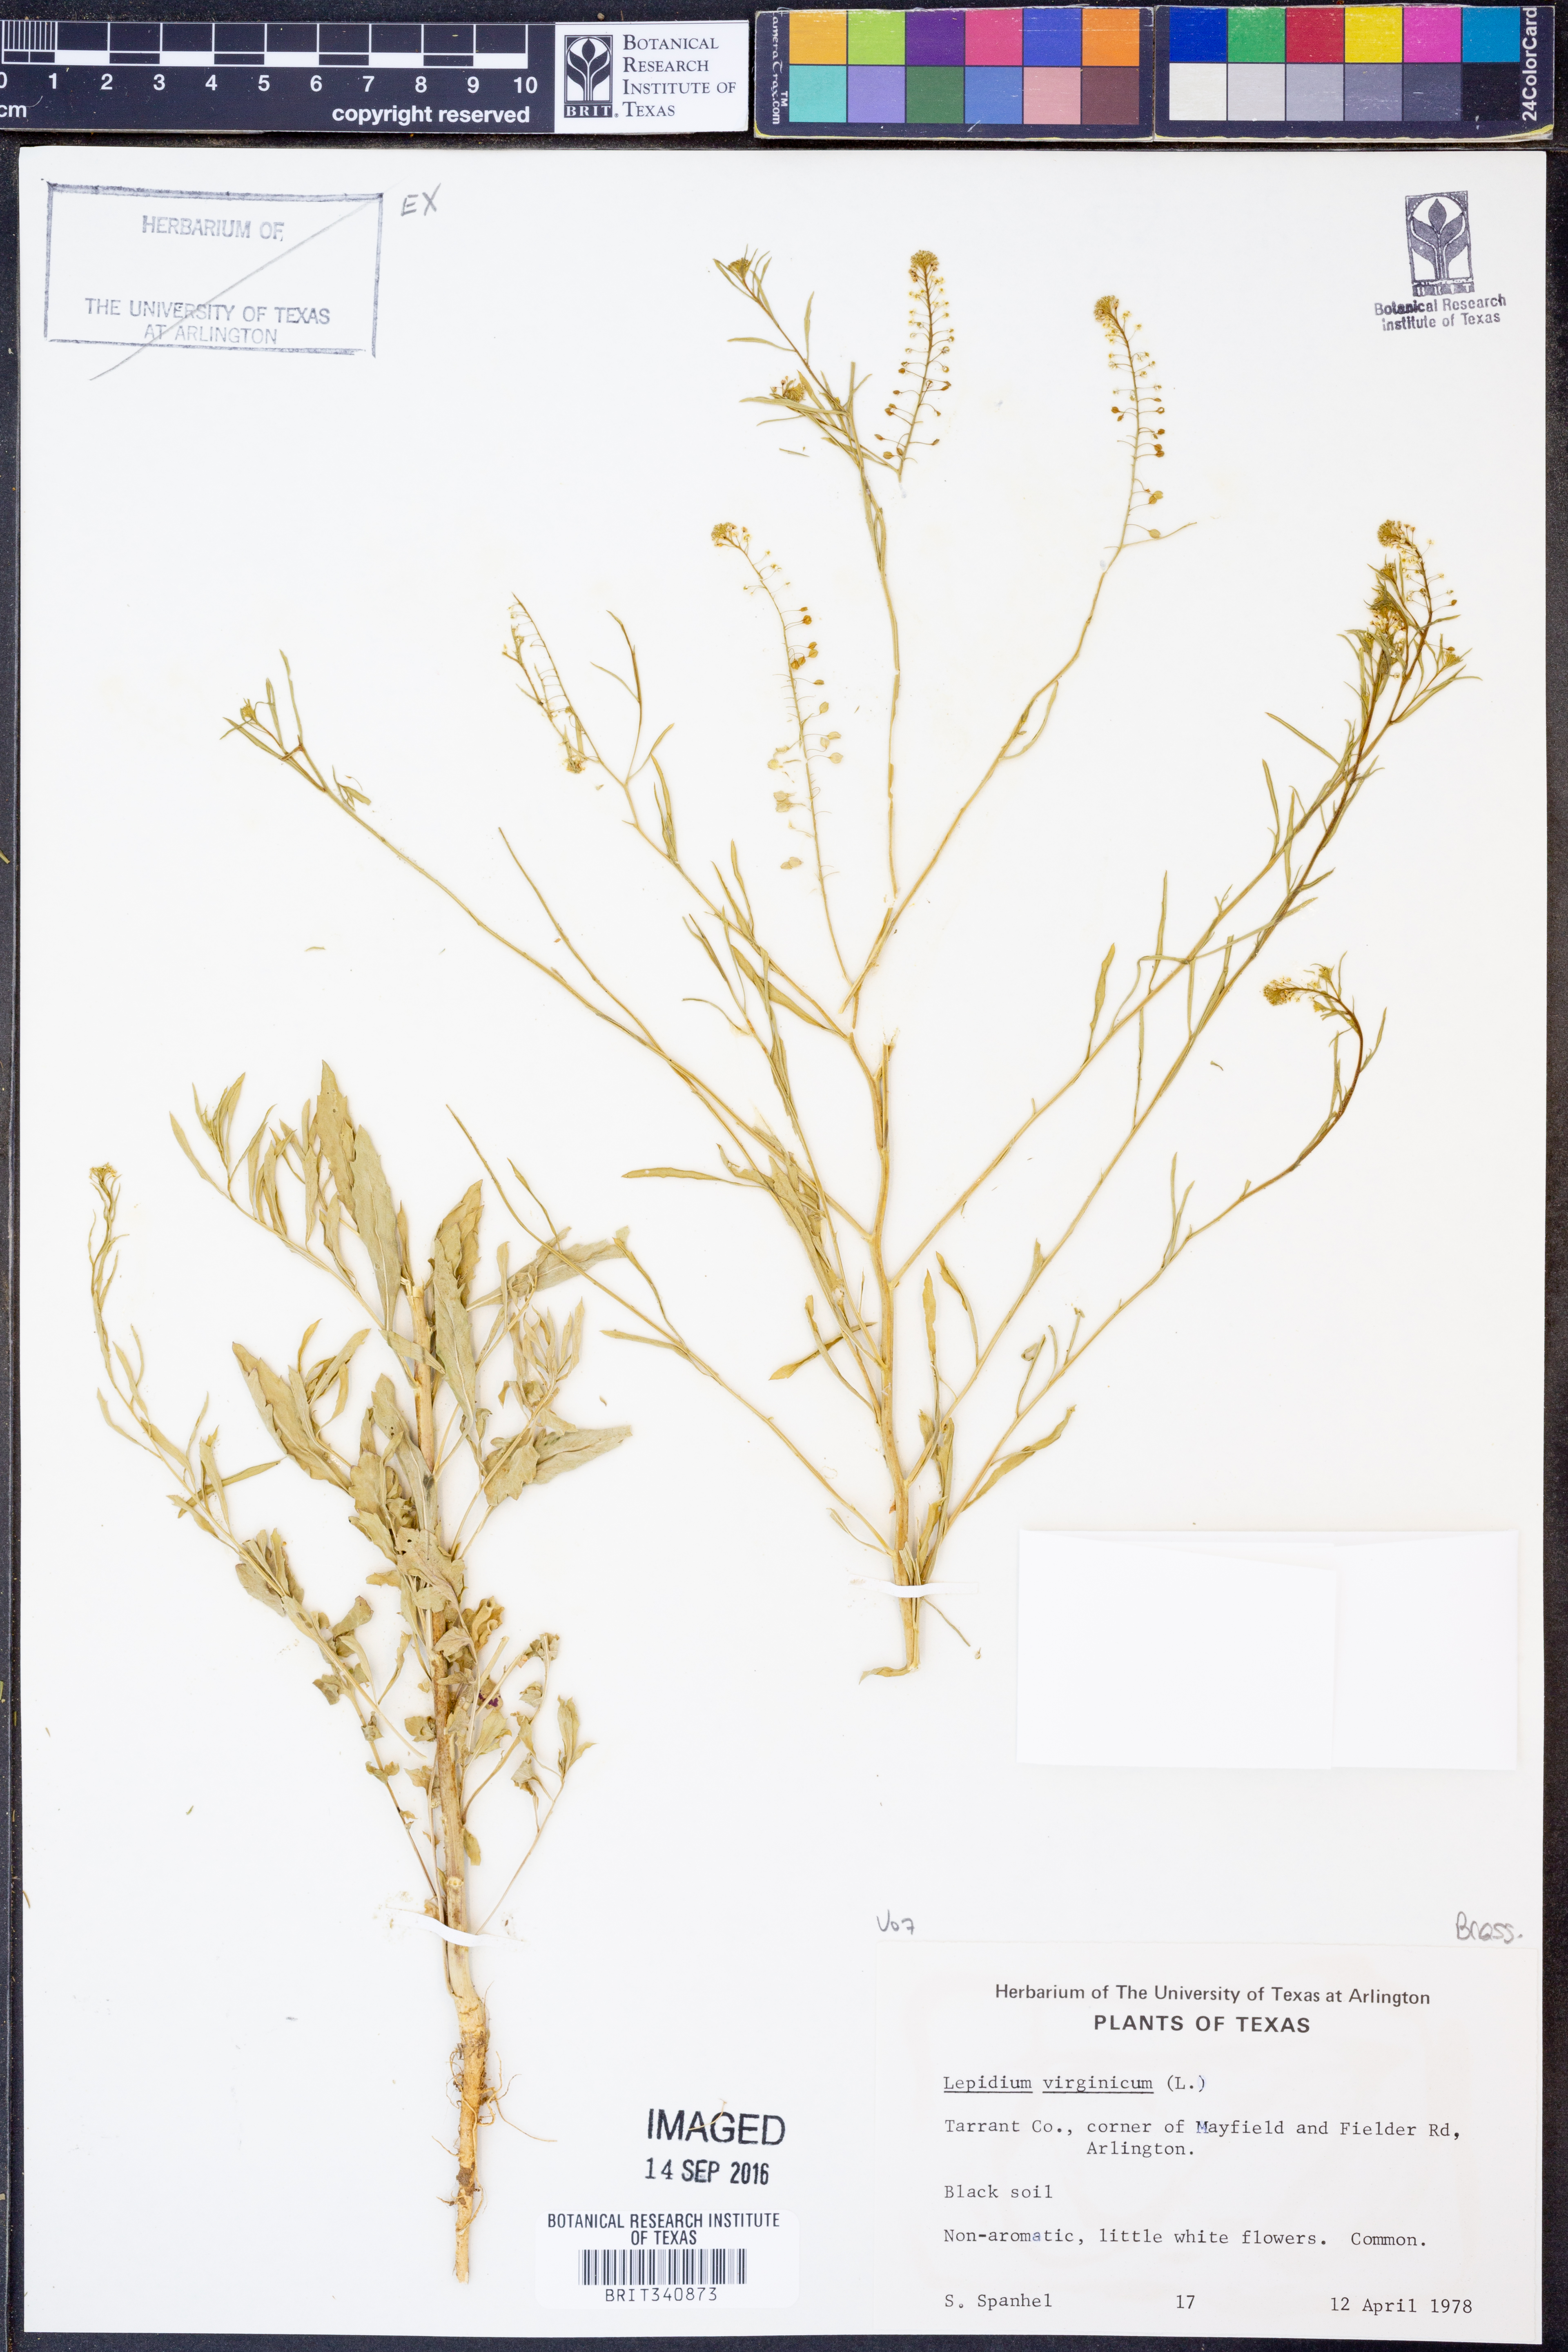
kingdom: Plantae
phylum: Tracheophyta
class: Magnoliopsida
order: Brassicales
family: Brassicaceae
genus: Lepidium
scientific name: Lepidium virginicum
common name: Least pepperwort
